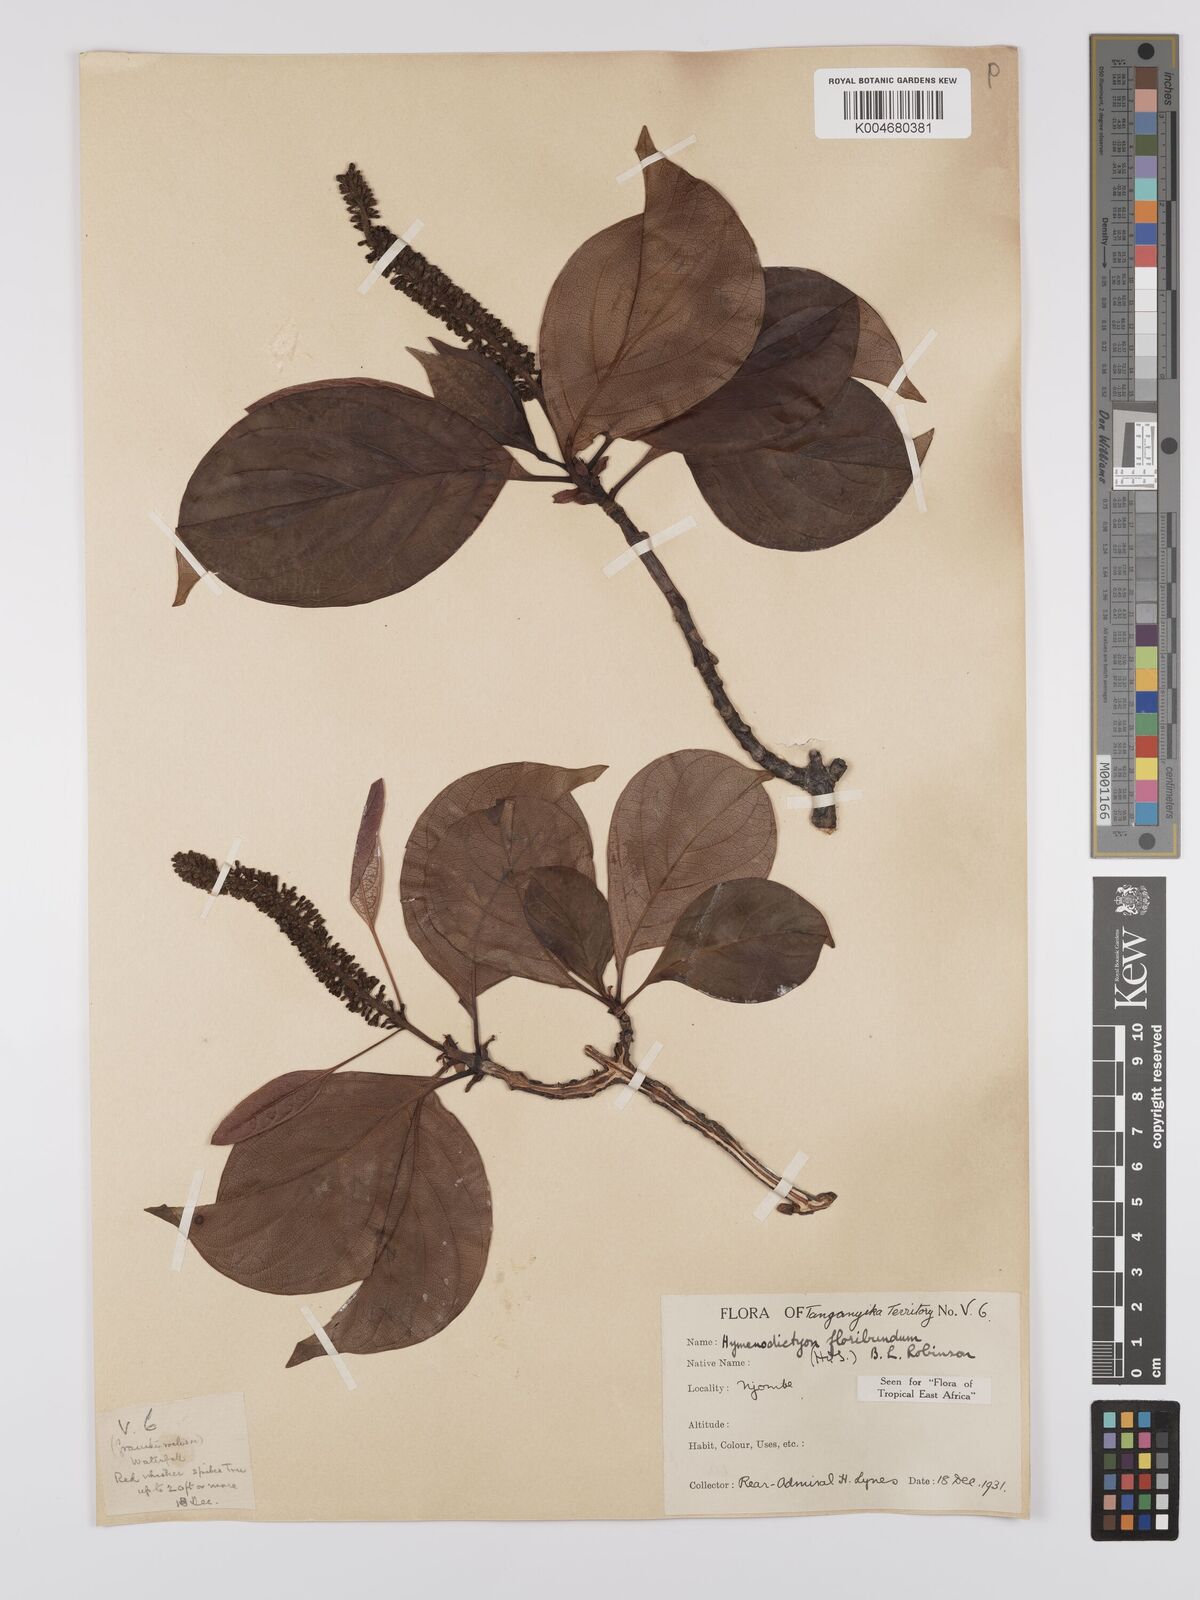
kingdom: Plantae
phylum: Tracheophyta
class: Magnoliopsida
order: Gentianales
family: Rubiaceae
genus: Hymenodictyon
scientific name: Hymenodictyon floribundum
